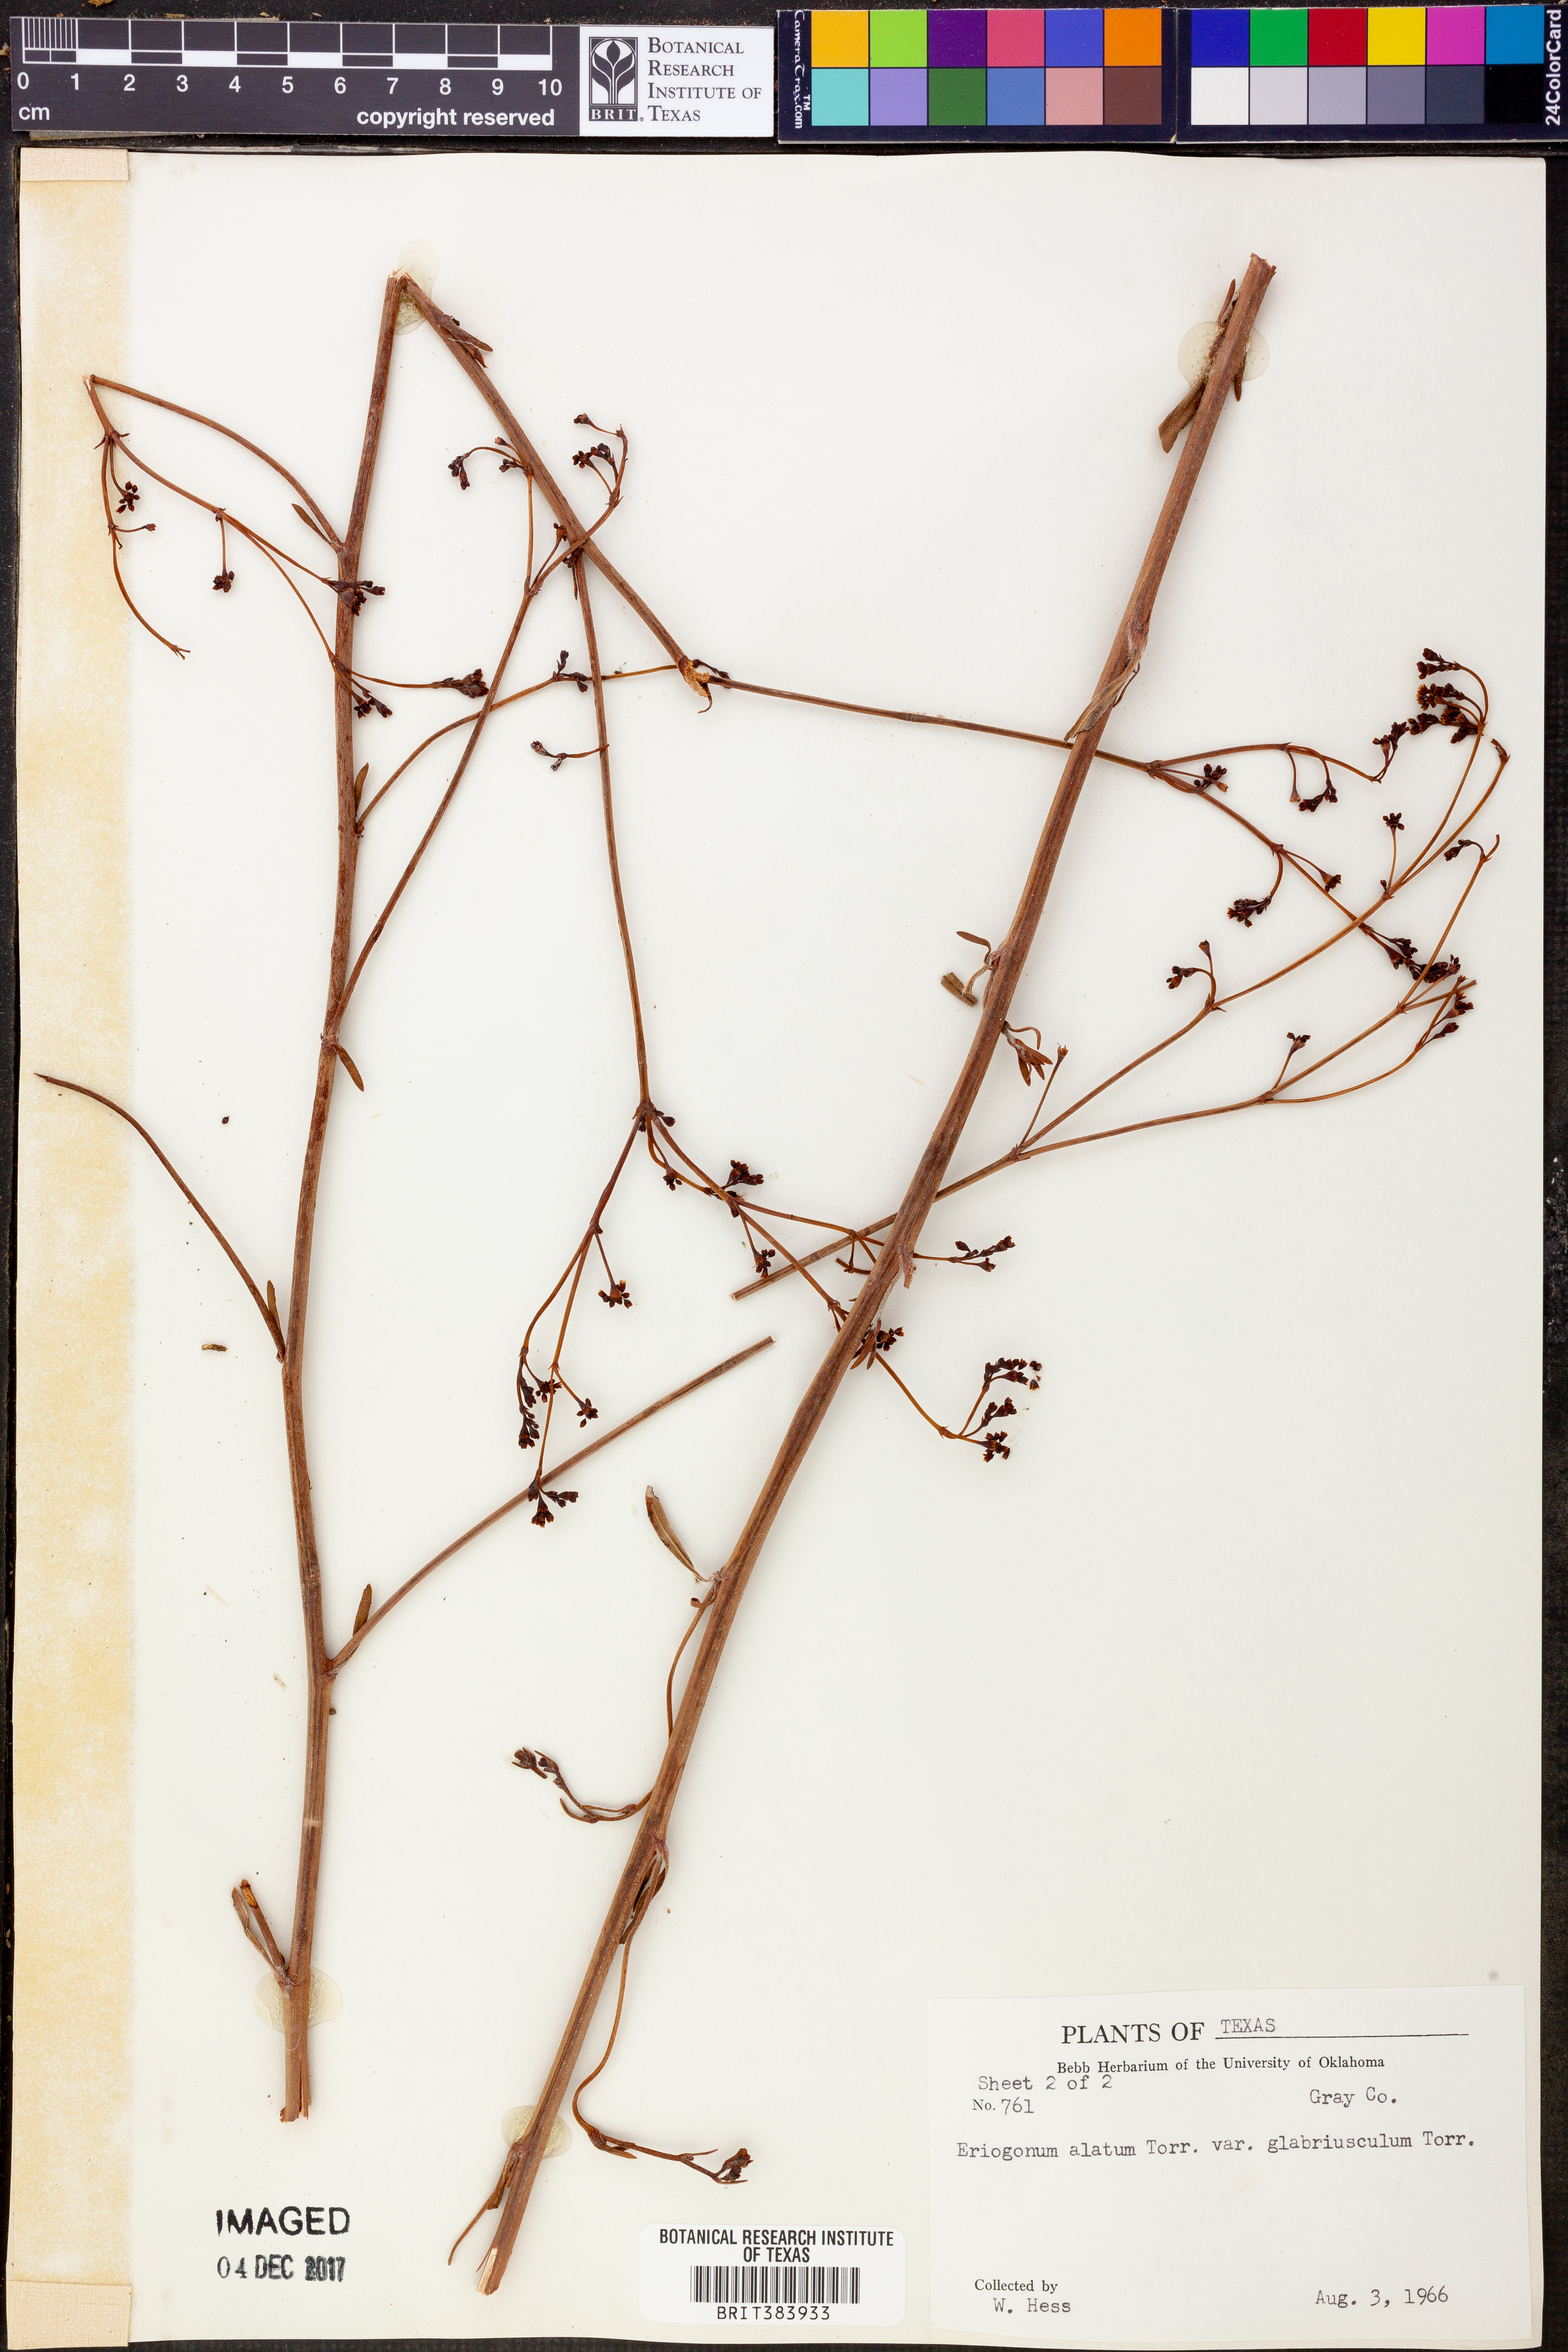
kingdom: Plantae
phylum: Tracheophyta
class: Magnoliopsida
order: Caryophyllales
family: Polygonaceae
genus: Eriogonum
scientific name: Eriogonum alatum
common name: Winged eriogonum
